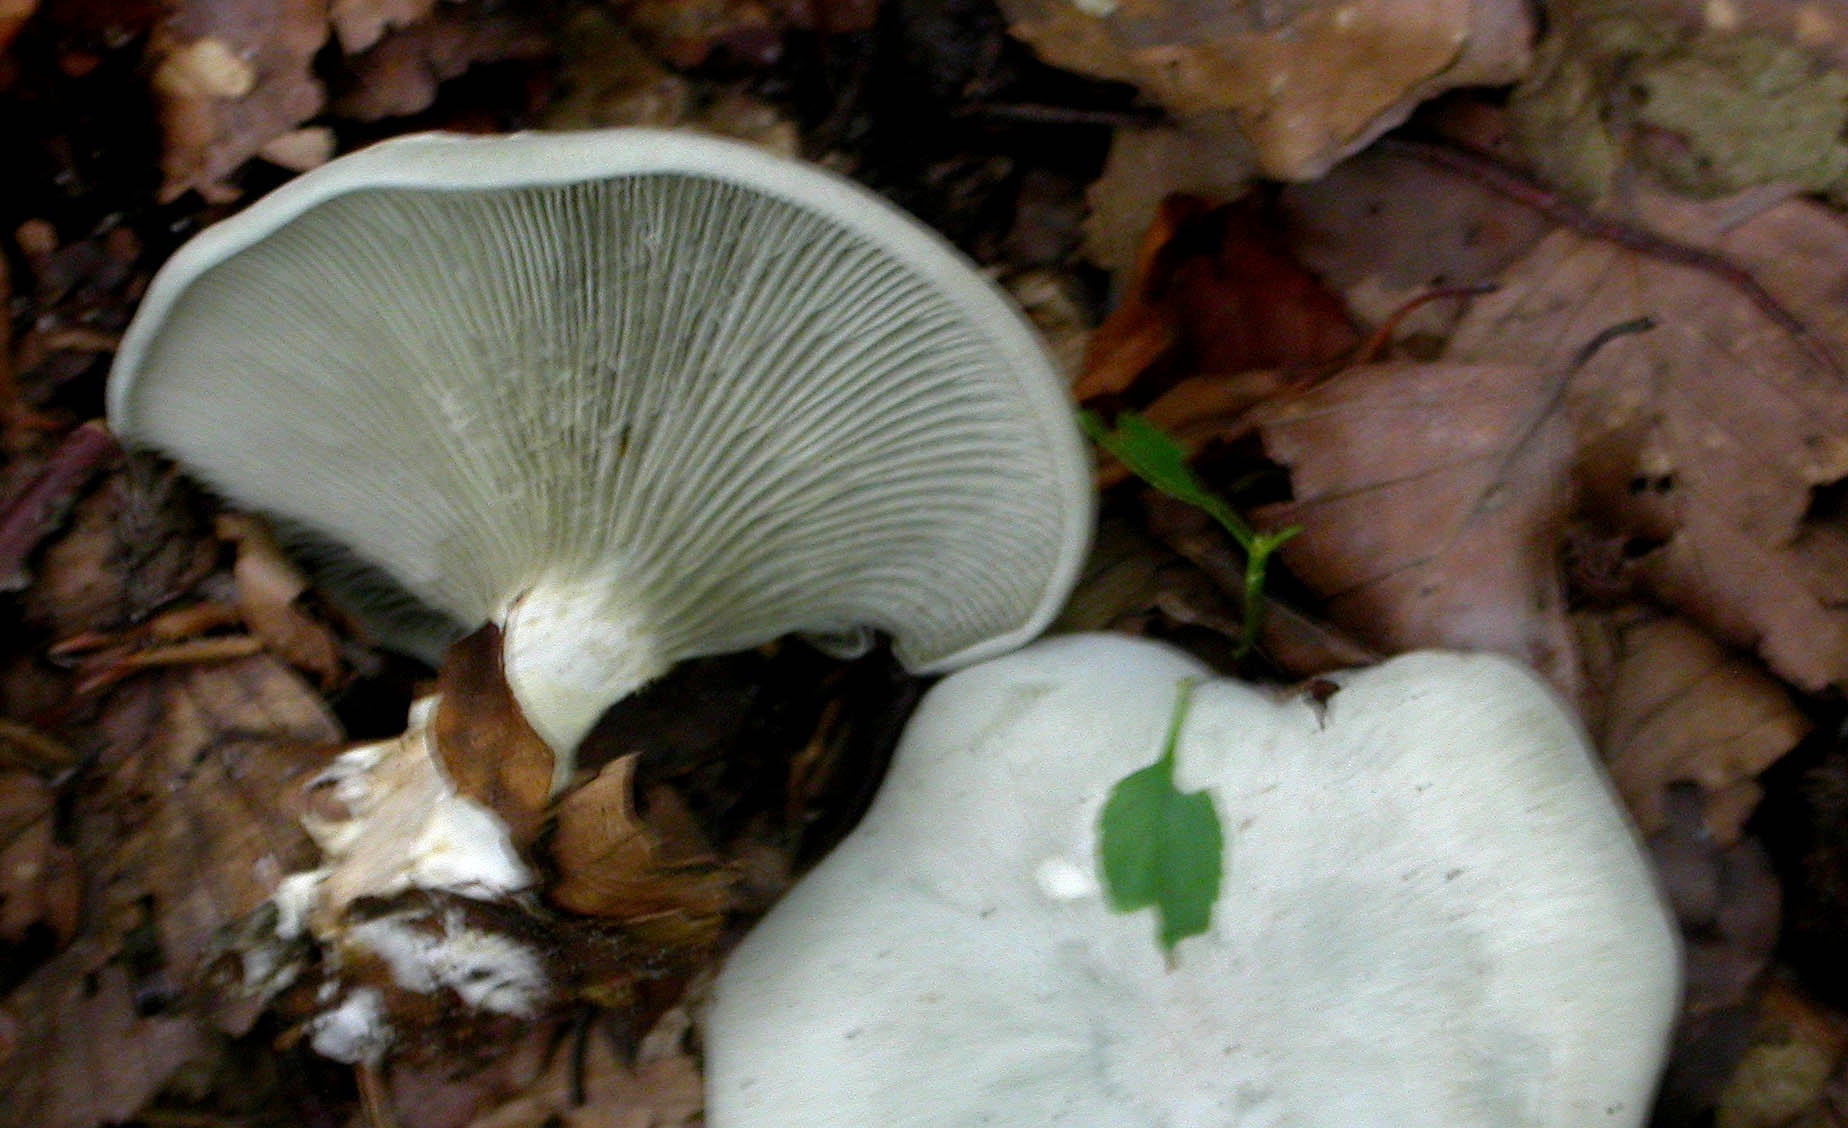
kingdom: Fungi
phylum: Basidiomycota
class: Agaricomycetes
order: Agaricales
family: Tricholomataceae
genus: Clitocybe
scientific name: Clitocybe odora
